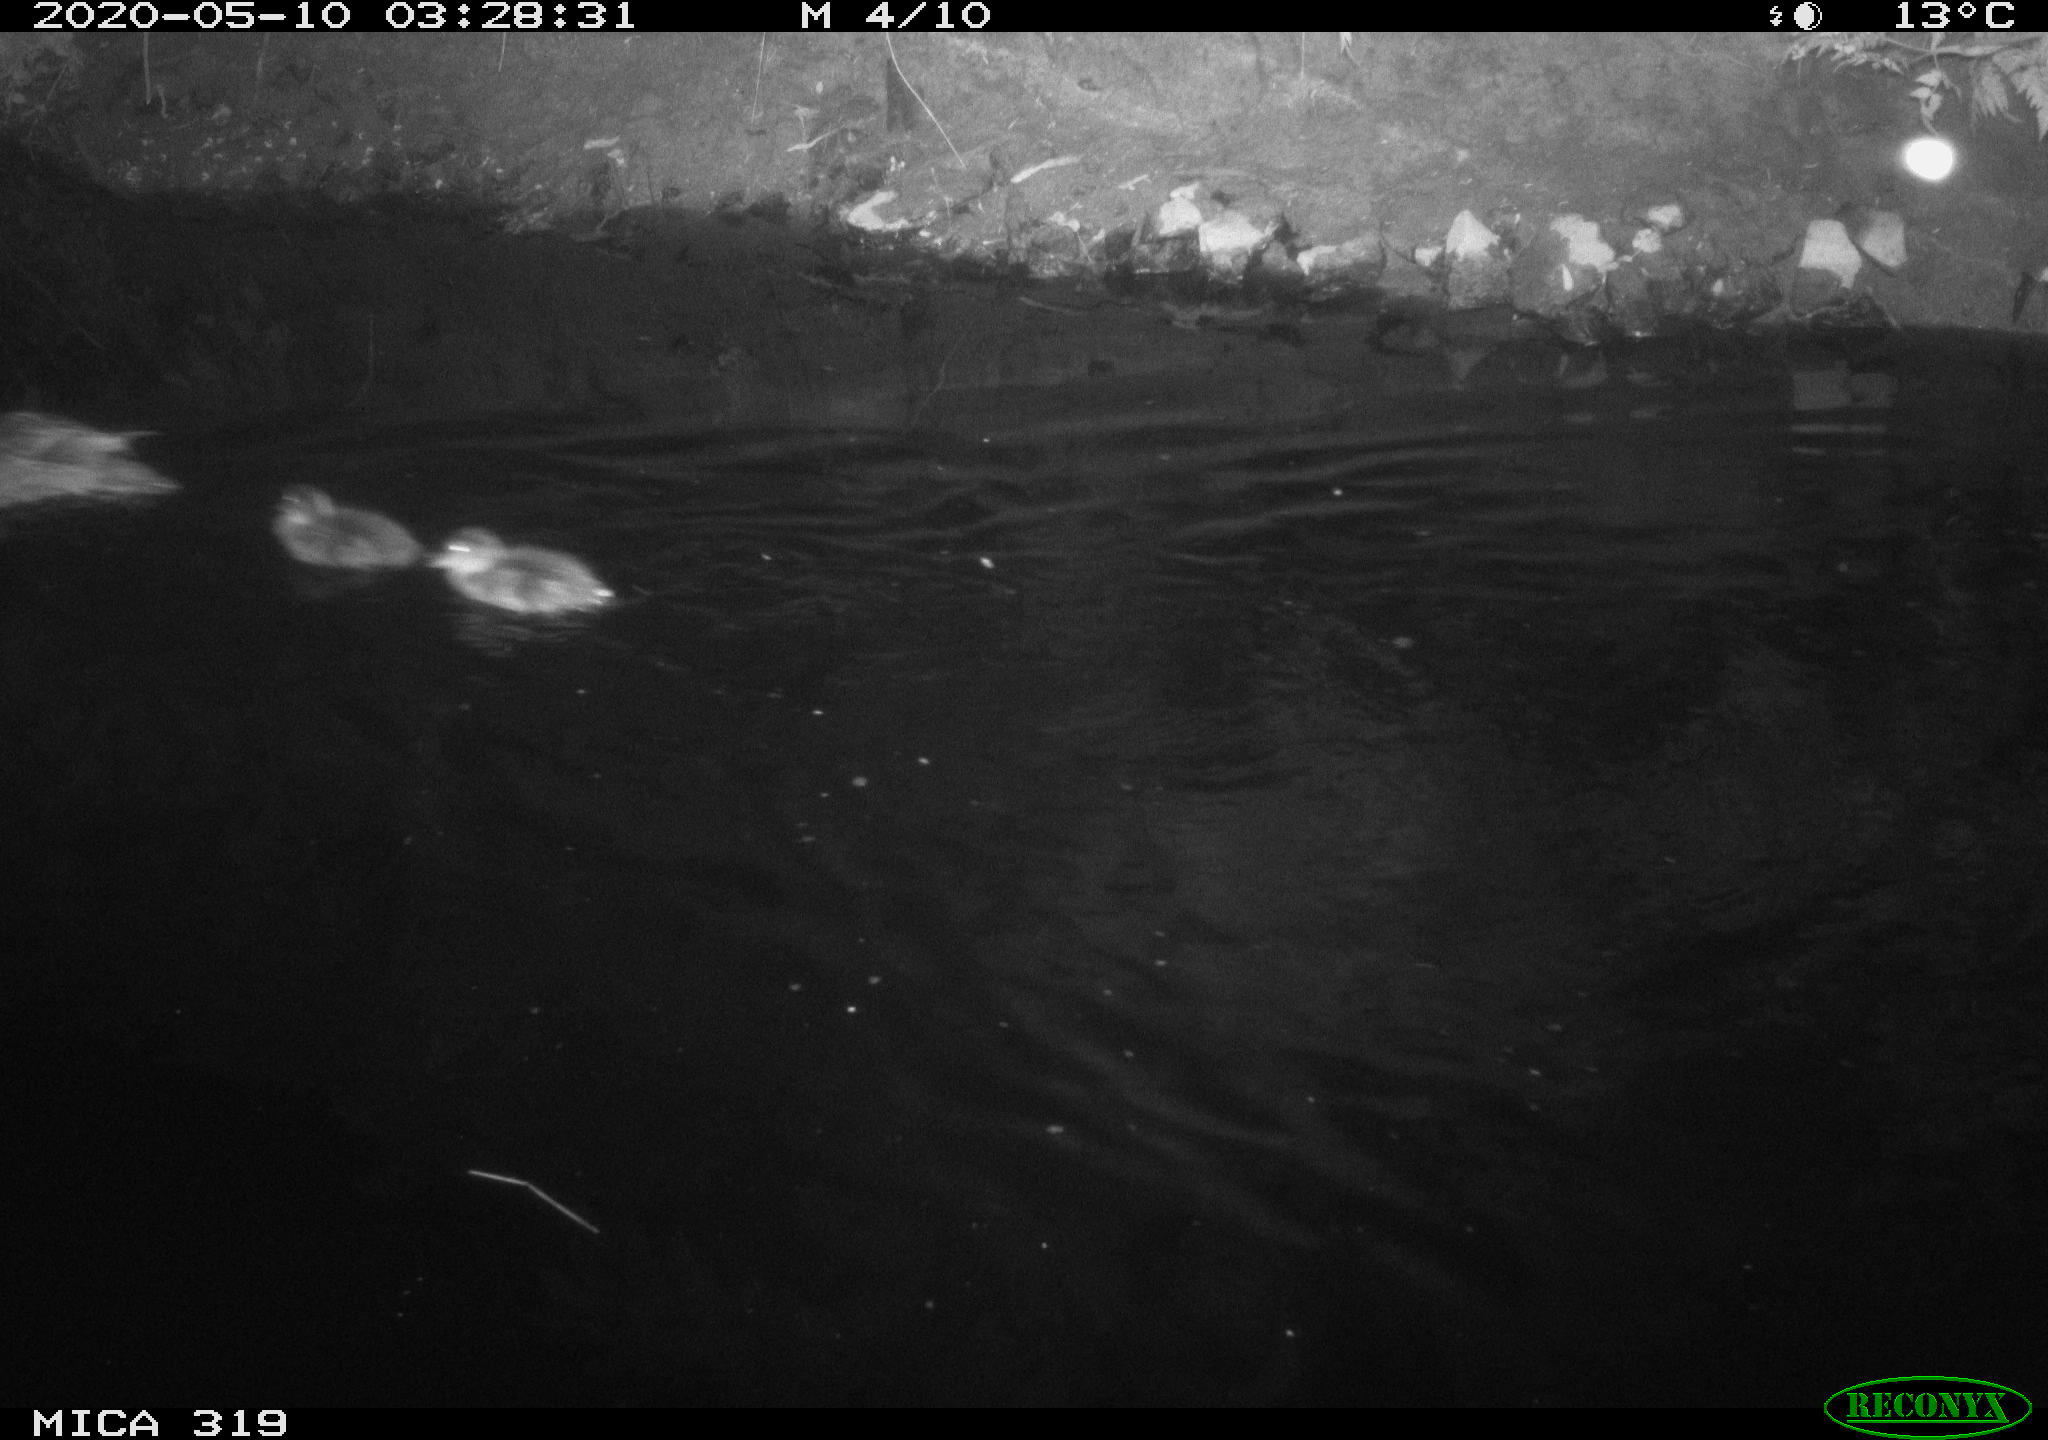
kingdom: Animalia
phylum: Chordata
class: Aves
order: Anseriformes
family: Anatidae
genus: Anas
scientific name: Anas platyrhynchos
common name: Mallard
